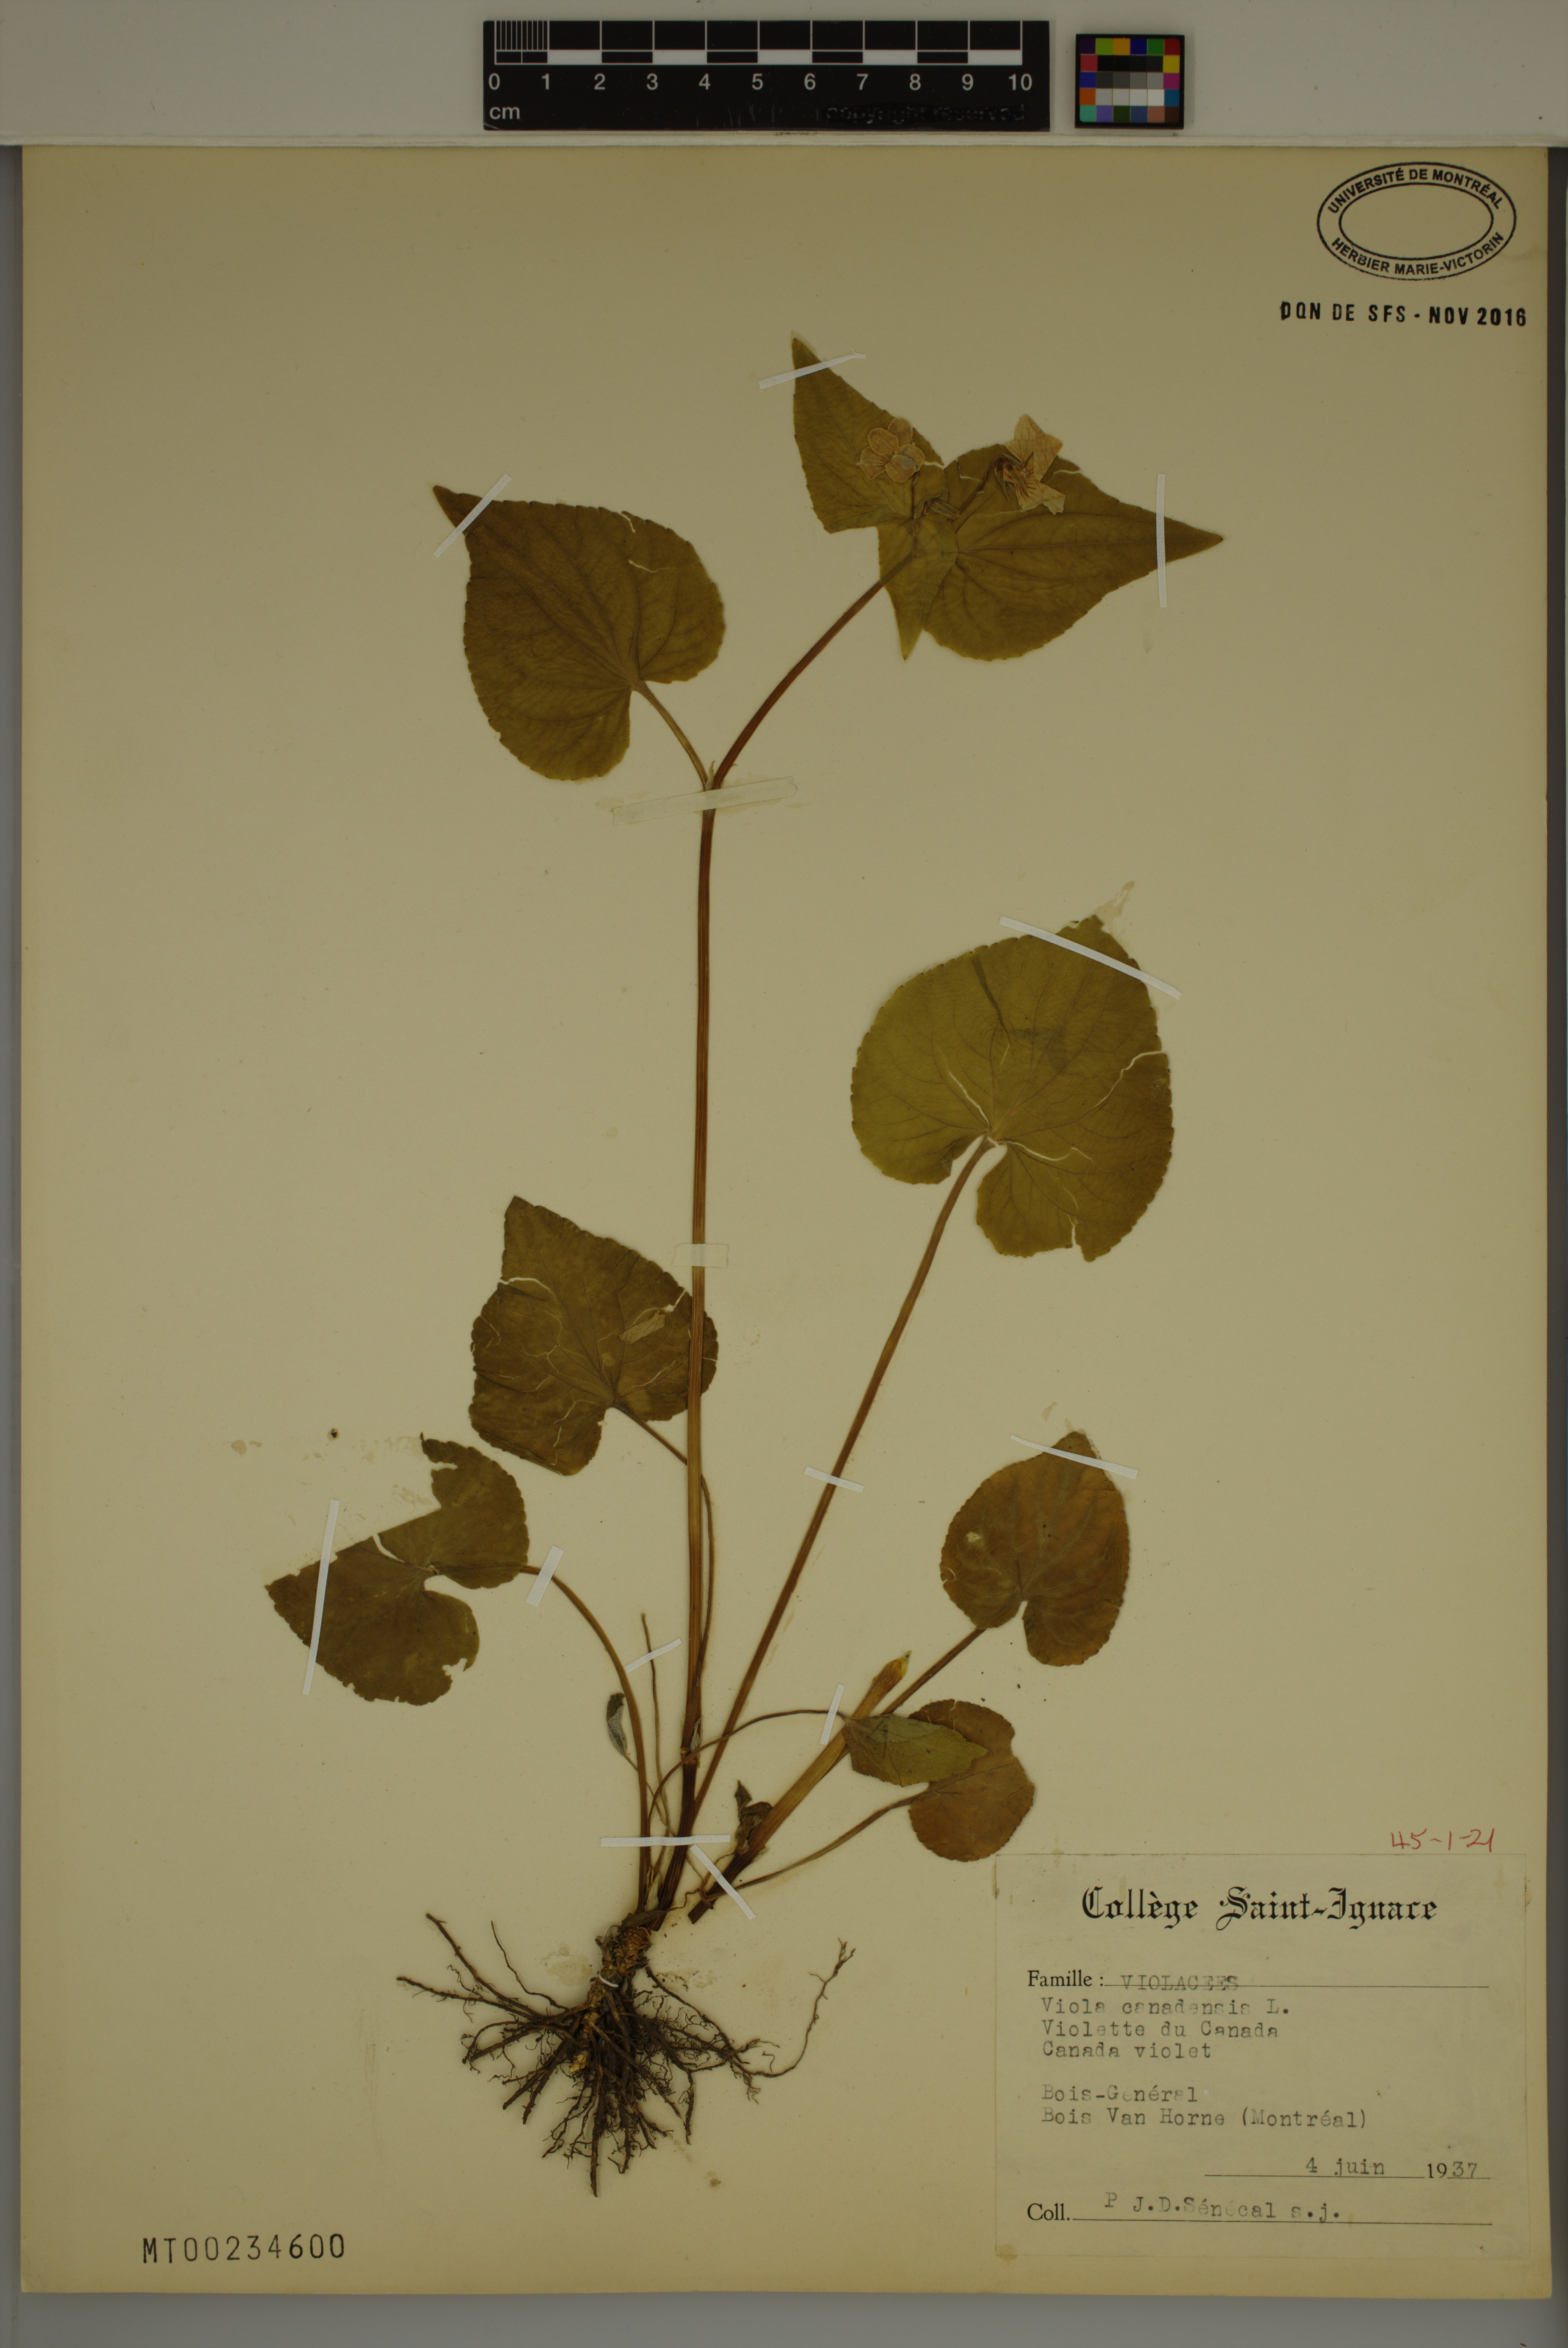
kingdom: Plantae
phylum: Tracheophyta
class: Magnoliopsida
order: Malpighiales
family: Violaceae
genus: Viola
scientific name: Viola canadensis
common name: Canada violet
